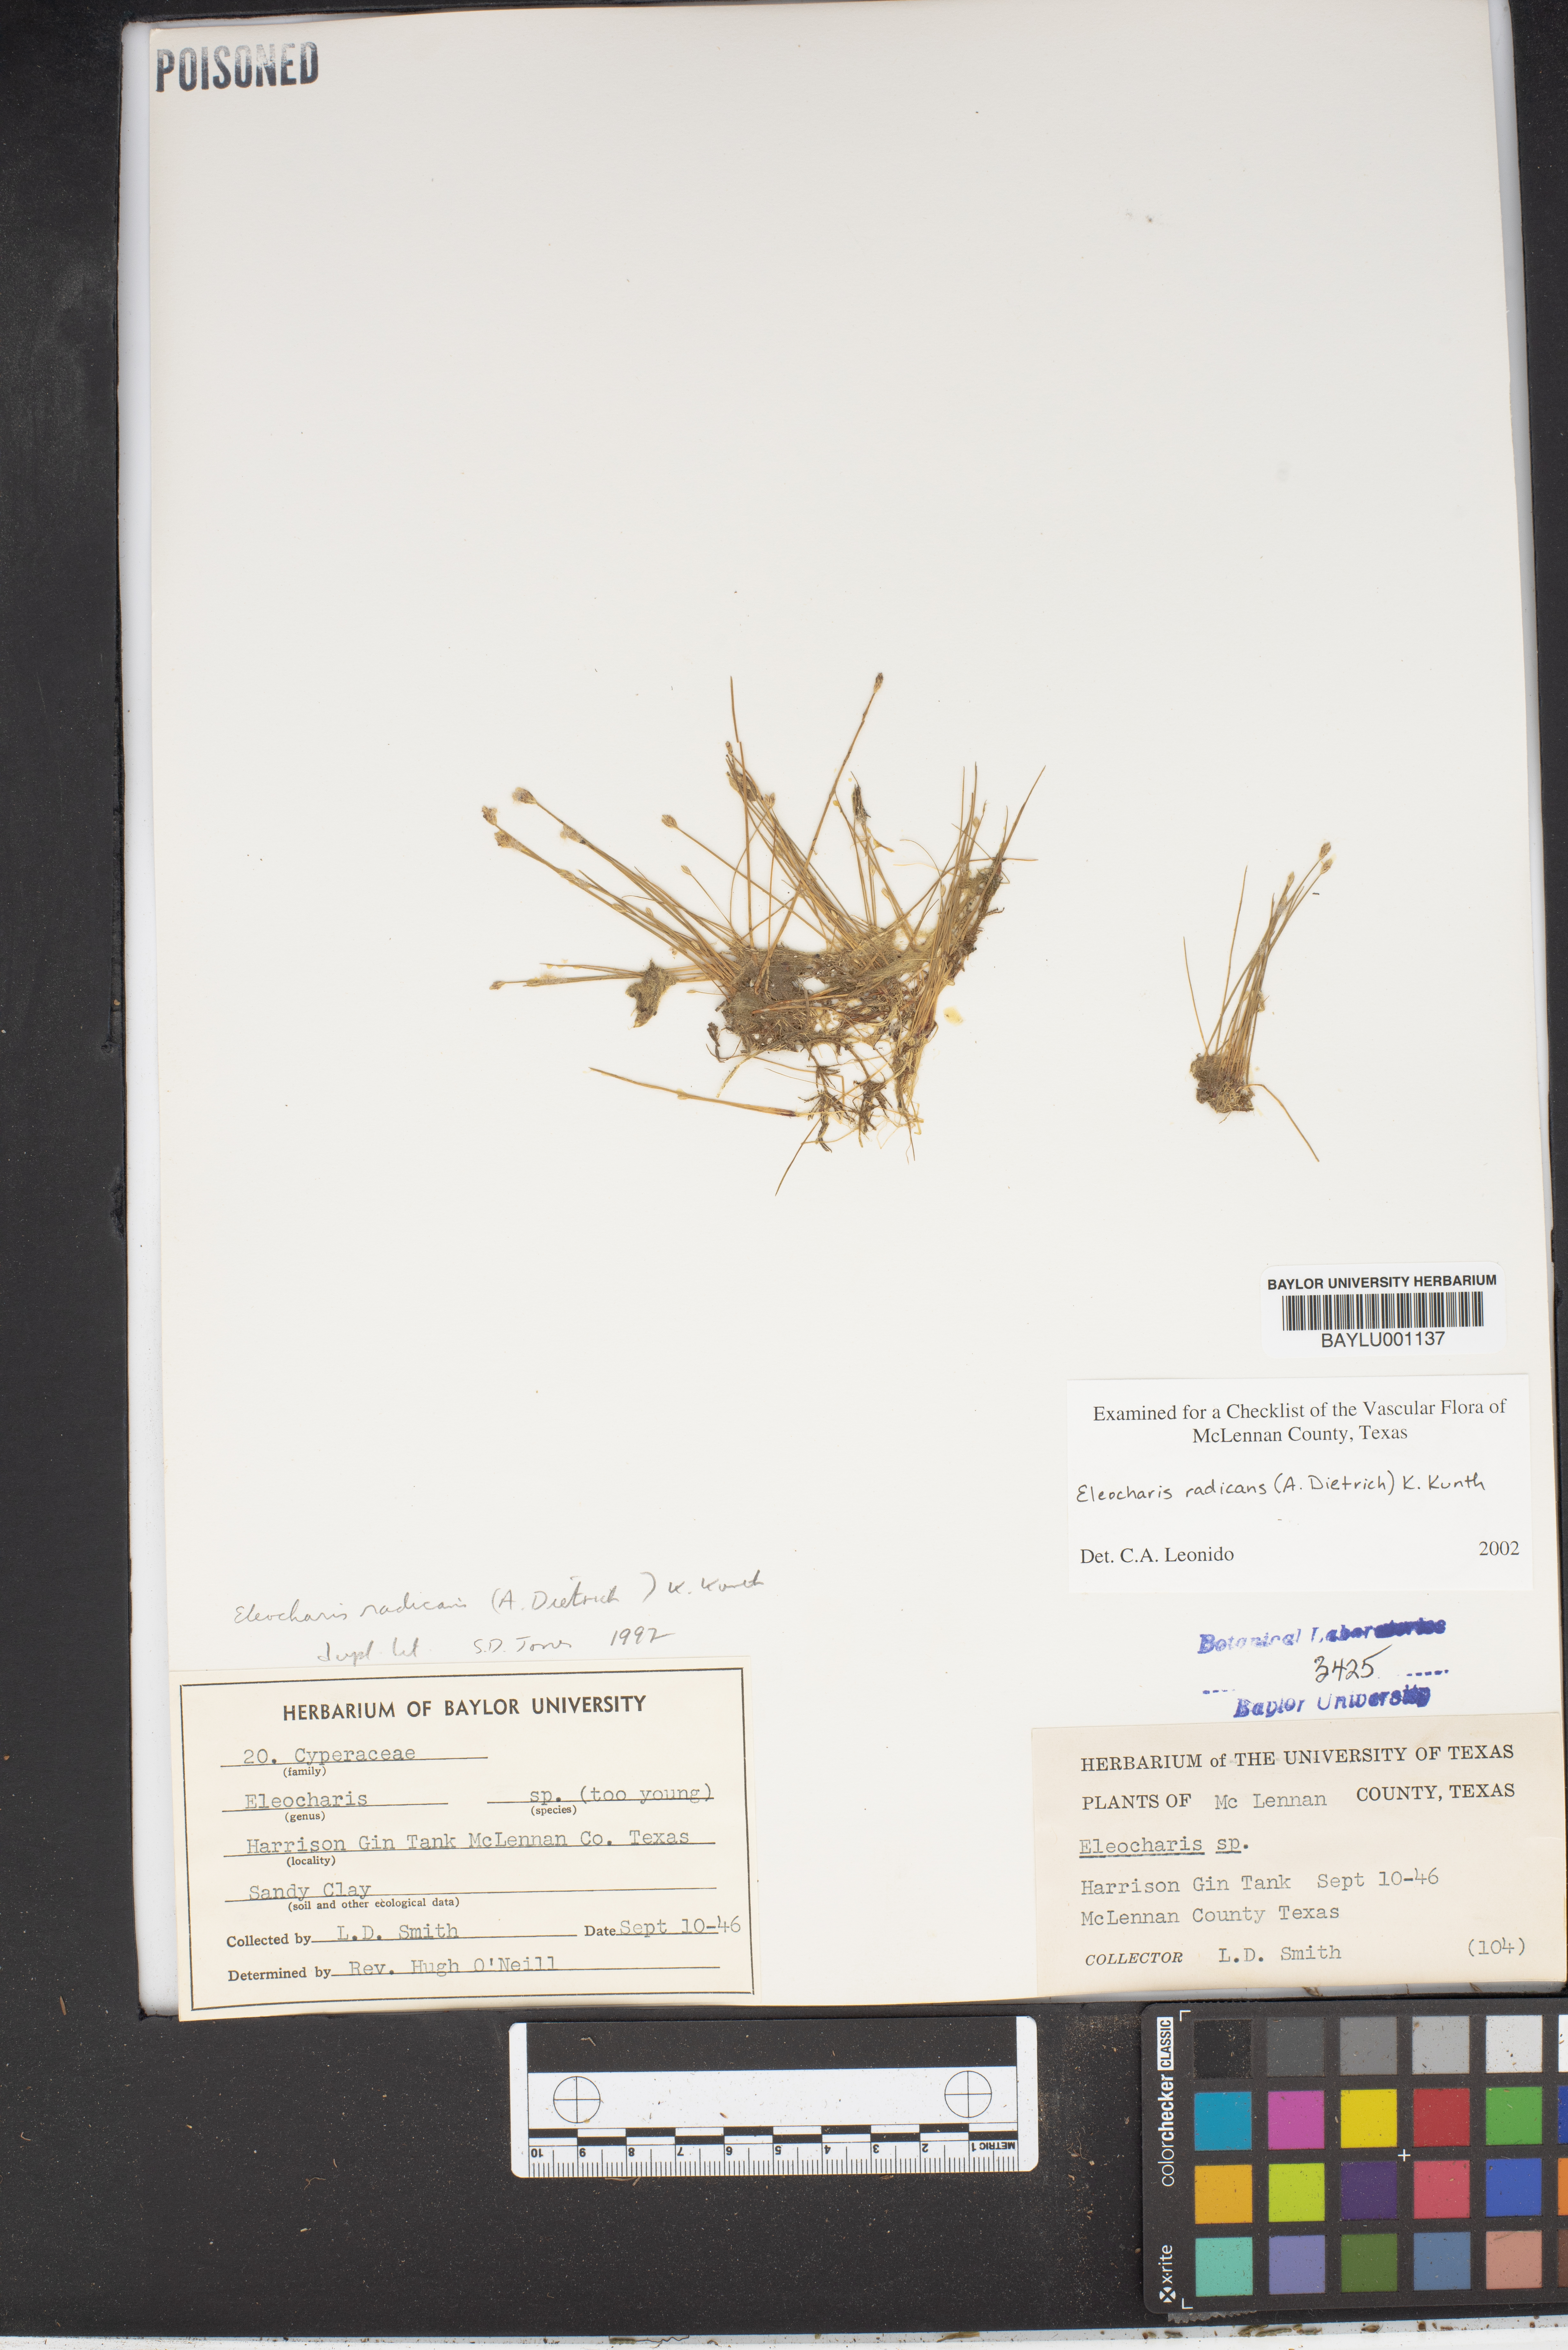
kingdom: Plantae
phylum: Tracheophyta
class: Liliopsida
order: Poales
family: Cyperaceae
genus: Eleocharis
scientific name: Eleocharis exigua
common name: Spikesedge
